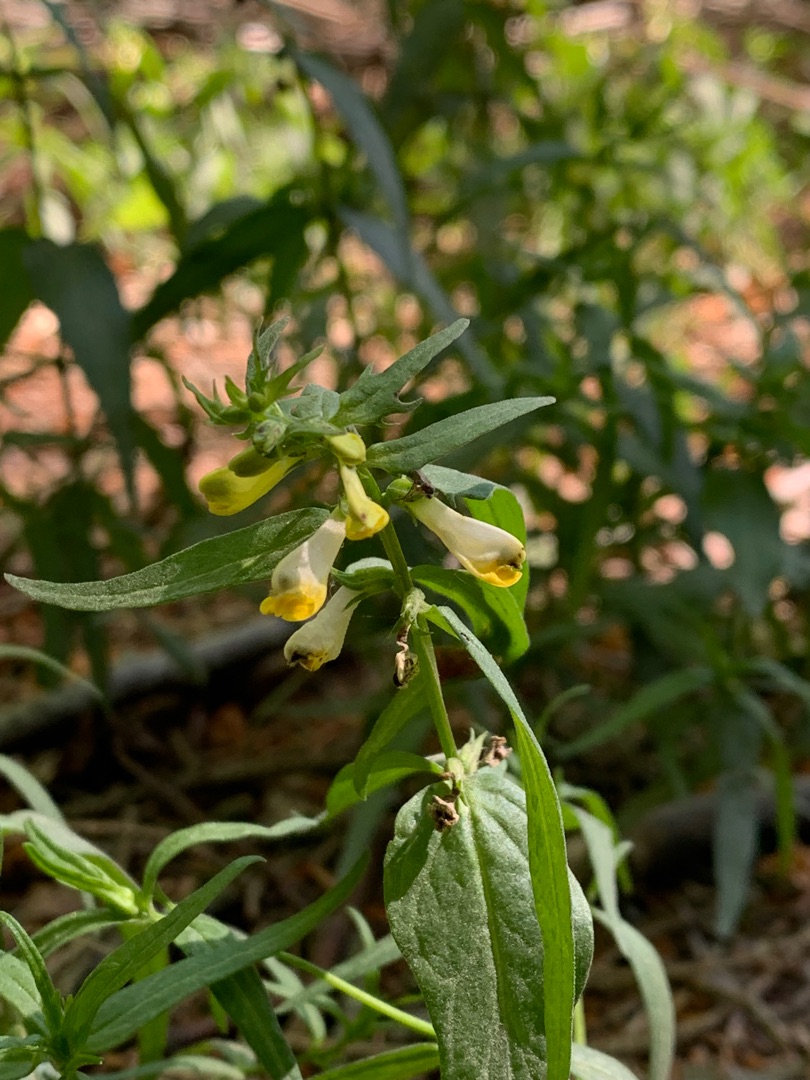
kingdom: Plantae
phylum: Tracheophyta
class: Magnoliopsida
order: Lamiales
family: Orobanchaceae
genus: Melampyrum
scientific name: Melampyrum pratense
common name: Almindelig kohvede
